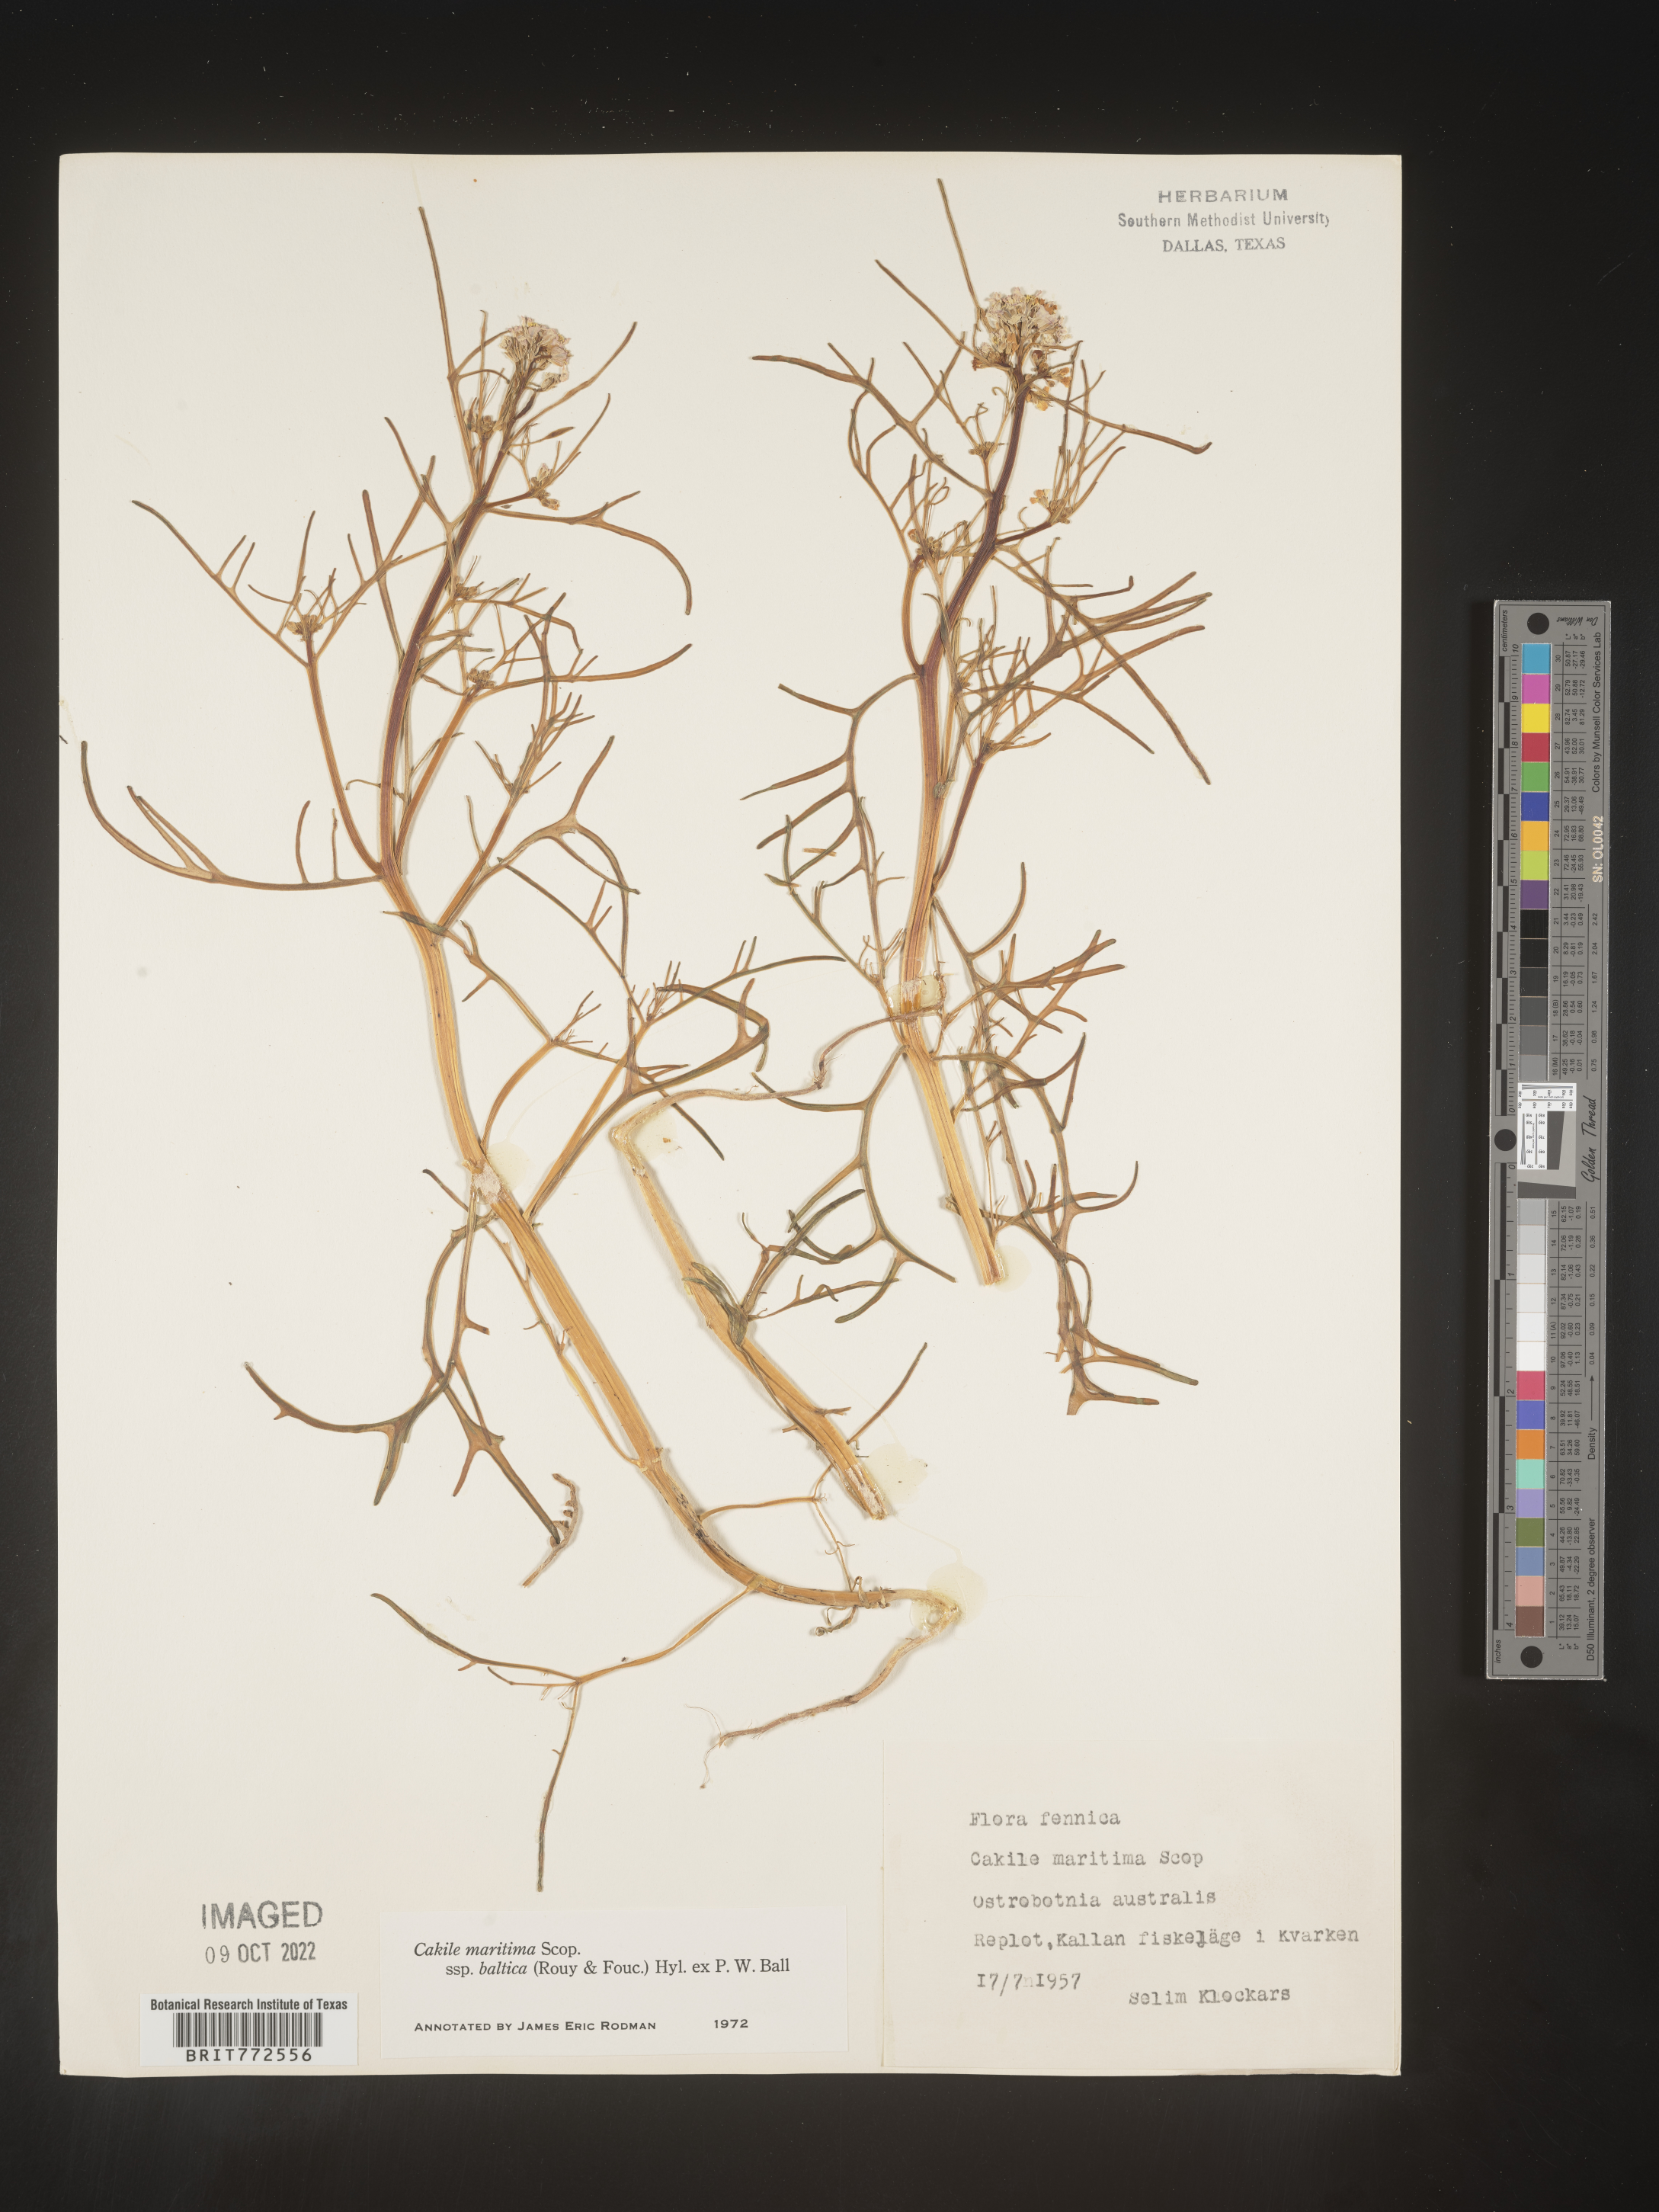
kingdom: Plantae
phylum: Tracheophyta
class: Magnoliopsida
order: Brassicales
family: Brassicaceae
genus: Cakile
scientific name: Cakile
